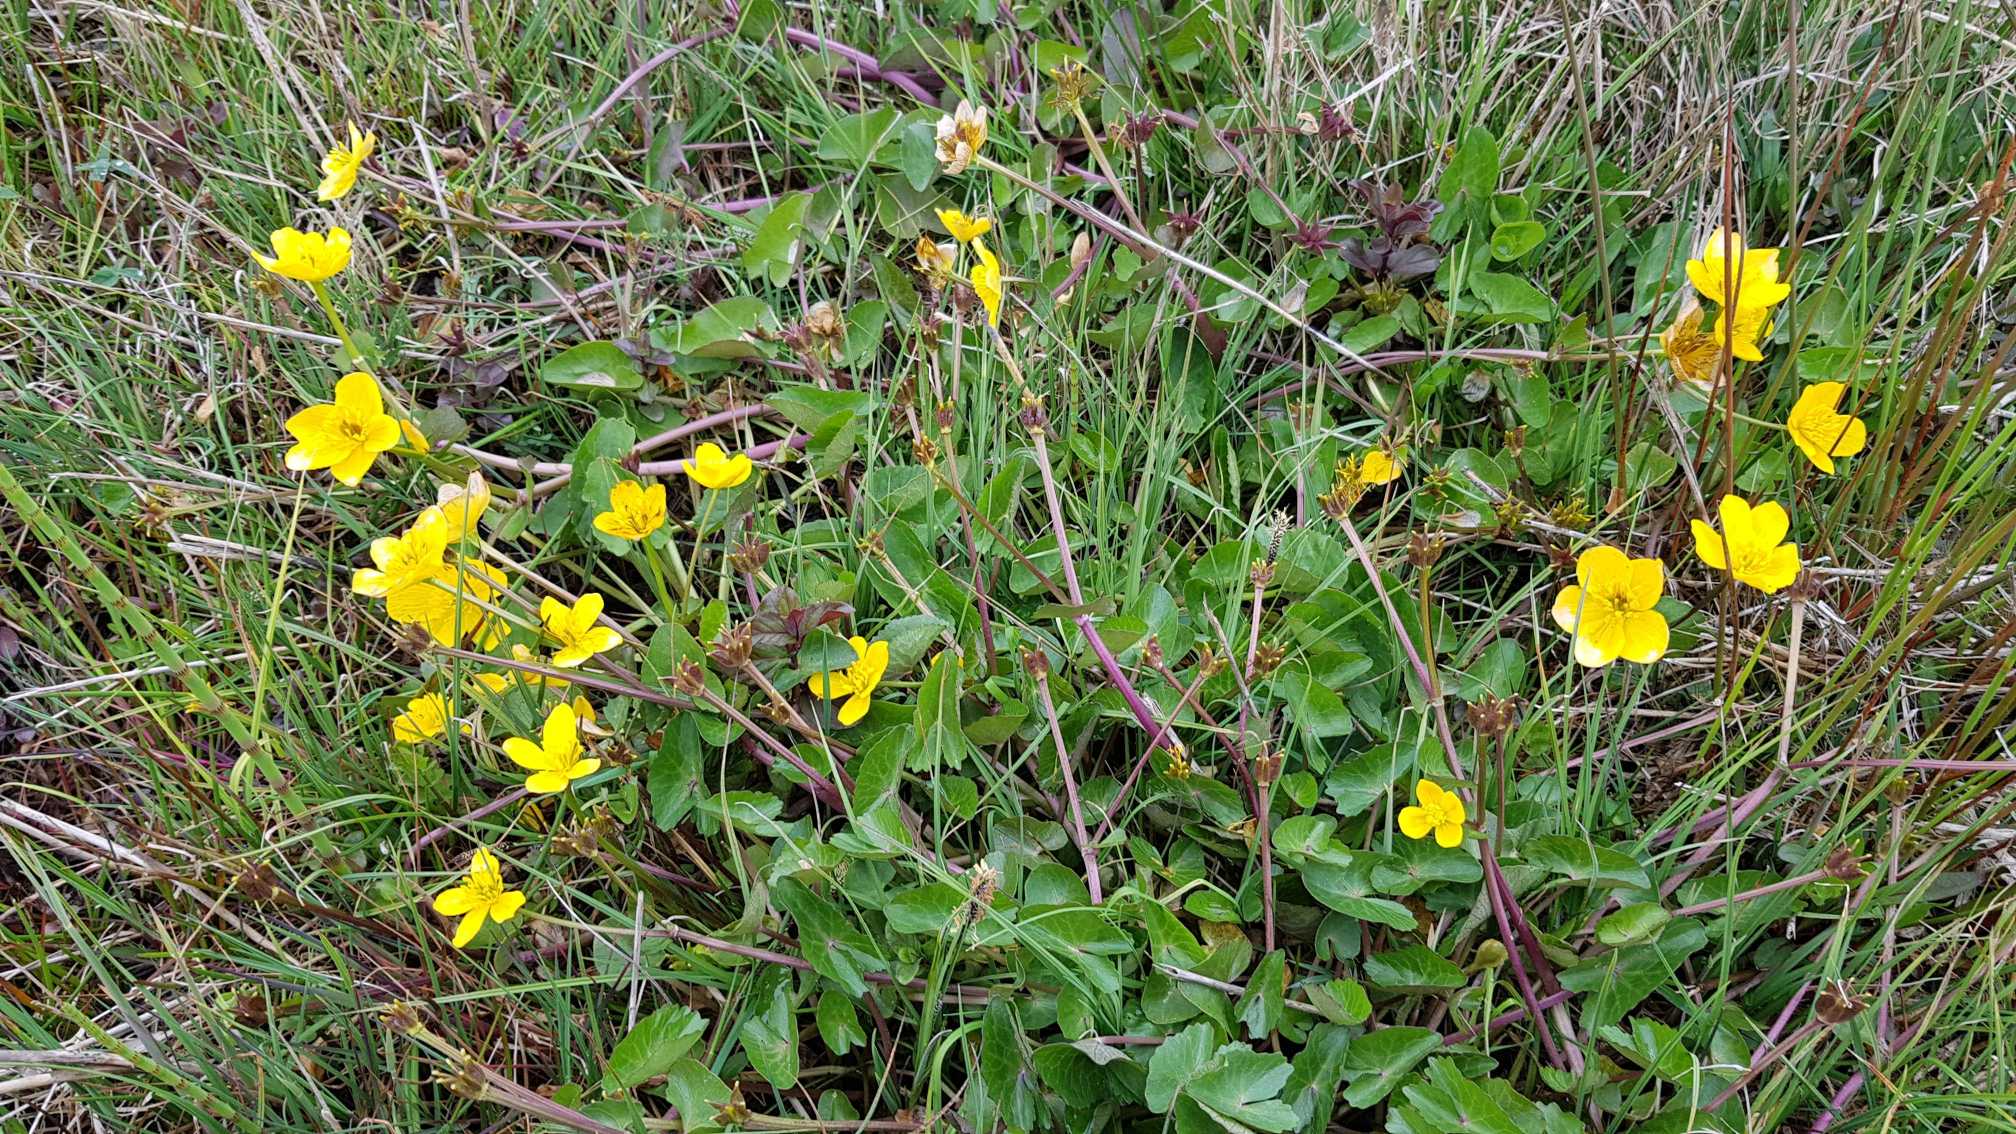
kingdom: Plantae
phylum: Tracheophyta
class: Magnoliopsida
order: Ranunculales
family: Ranunculaceae
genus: Caltha
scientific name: Caltha palustris
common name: Eng-kabbeleje
